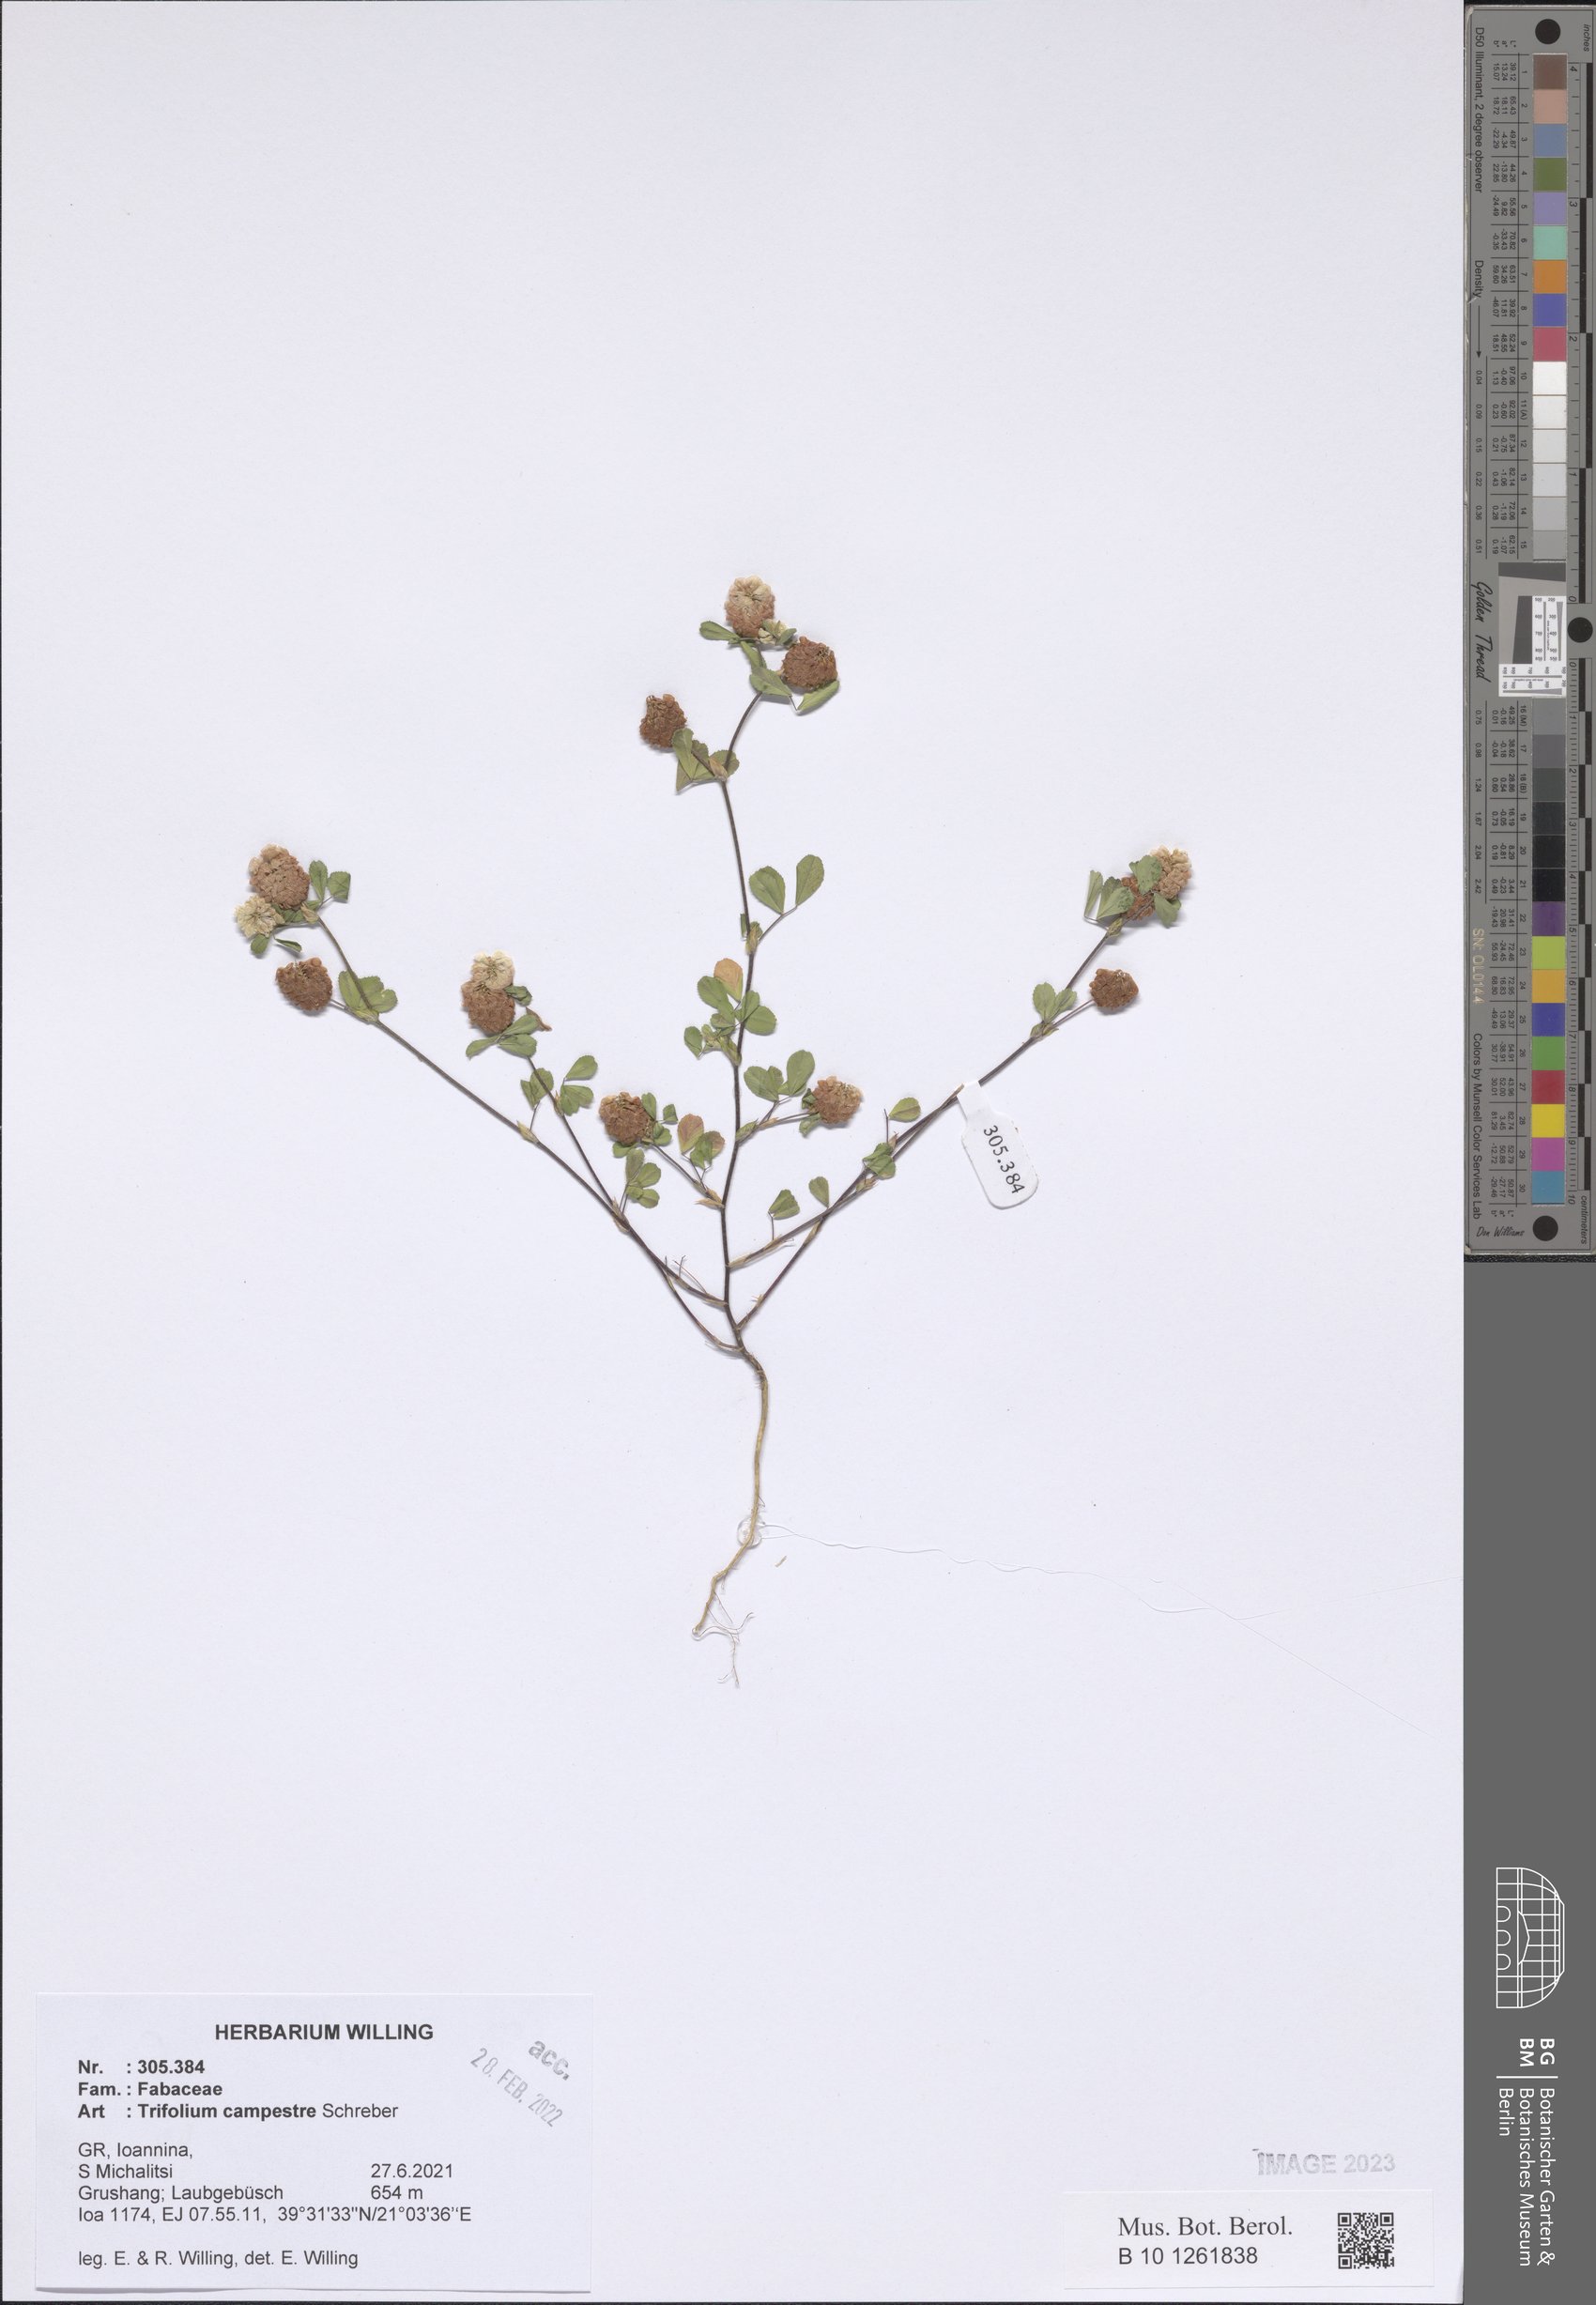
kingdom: Plantae
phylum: Tracheophyta
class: Magnoliopsida
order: Fabales
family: Fabaceae
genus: Trifolium
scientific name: Trifolium campestre
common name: Field clover
